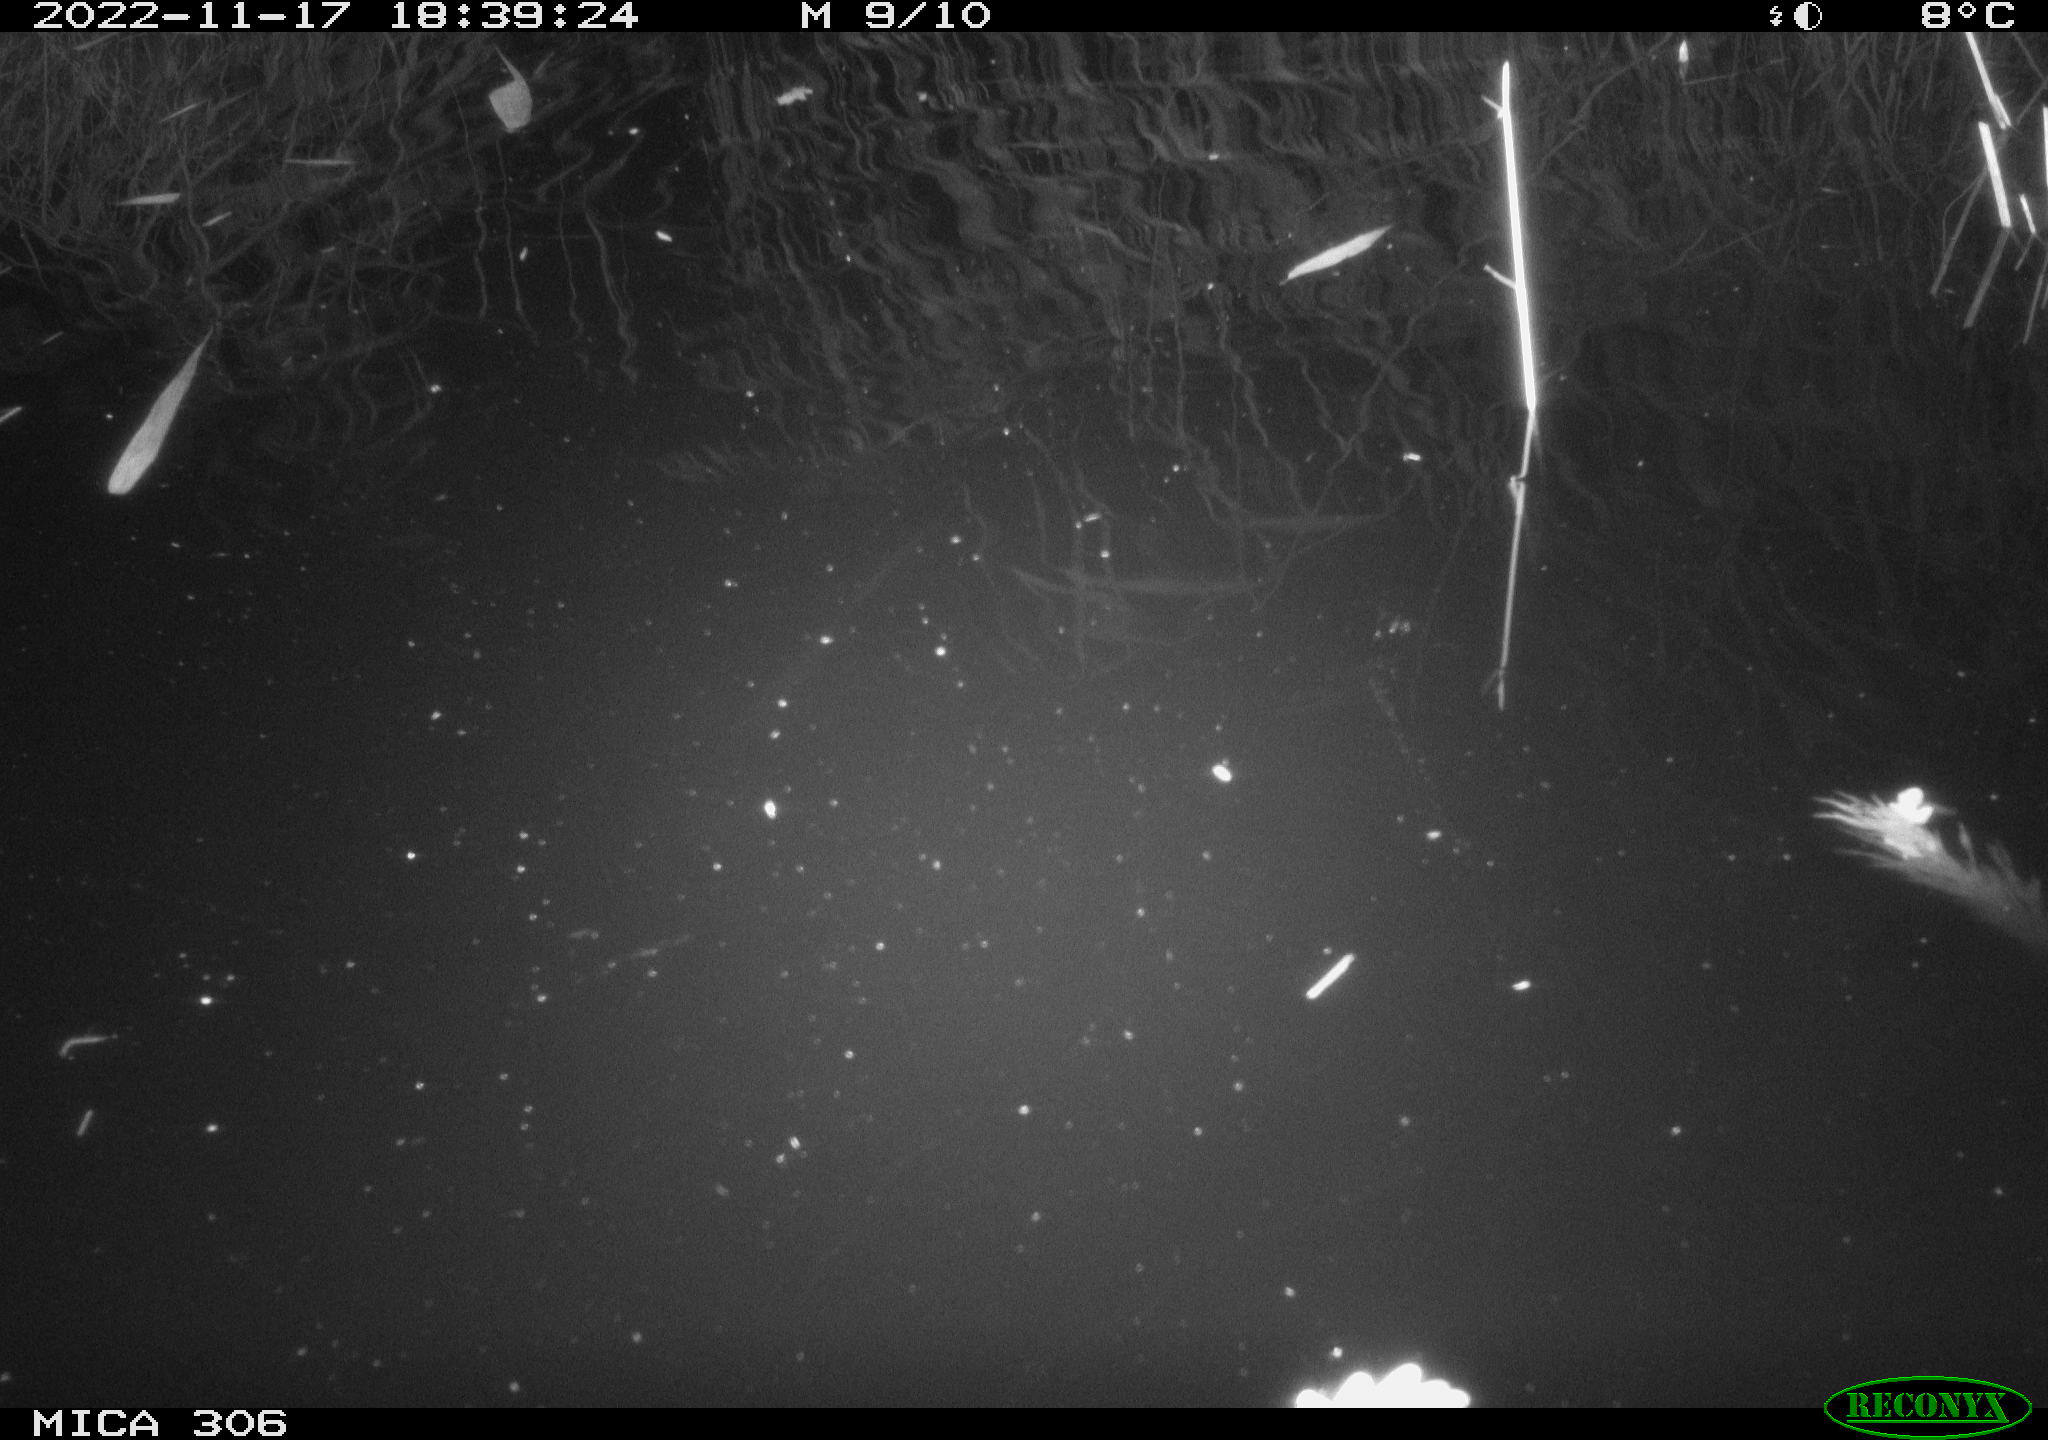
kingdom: Animalia
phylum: Chordata
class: Mammalia
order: Rodentia
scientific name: Rodentia
